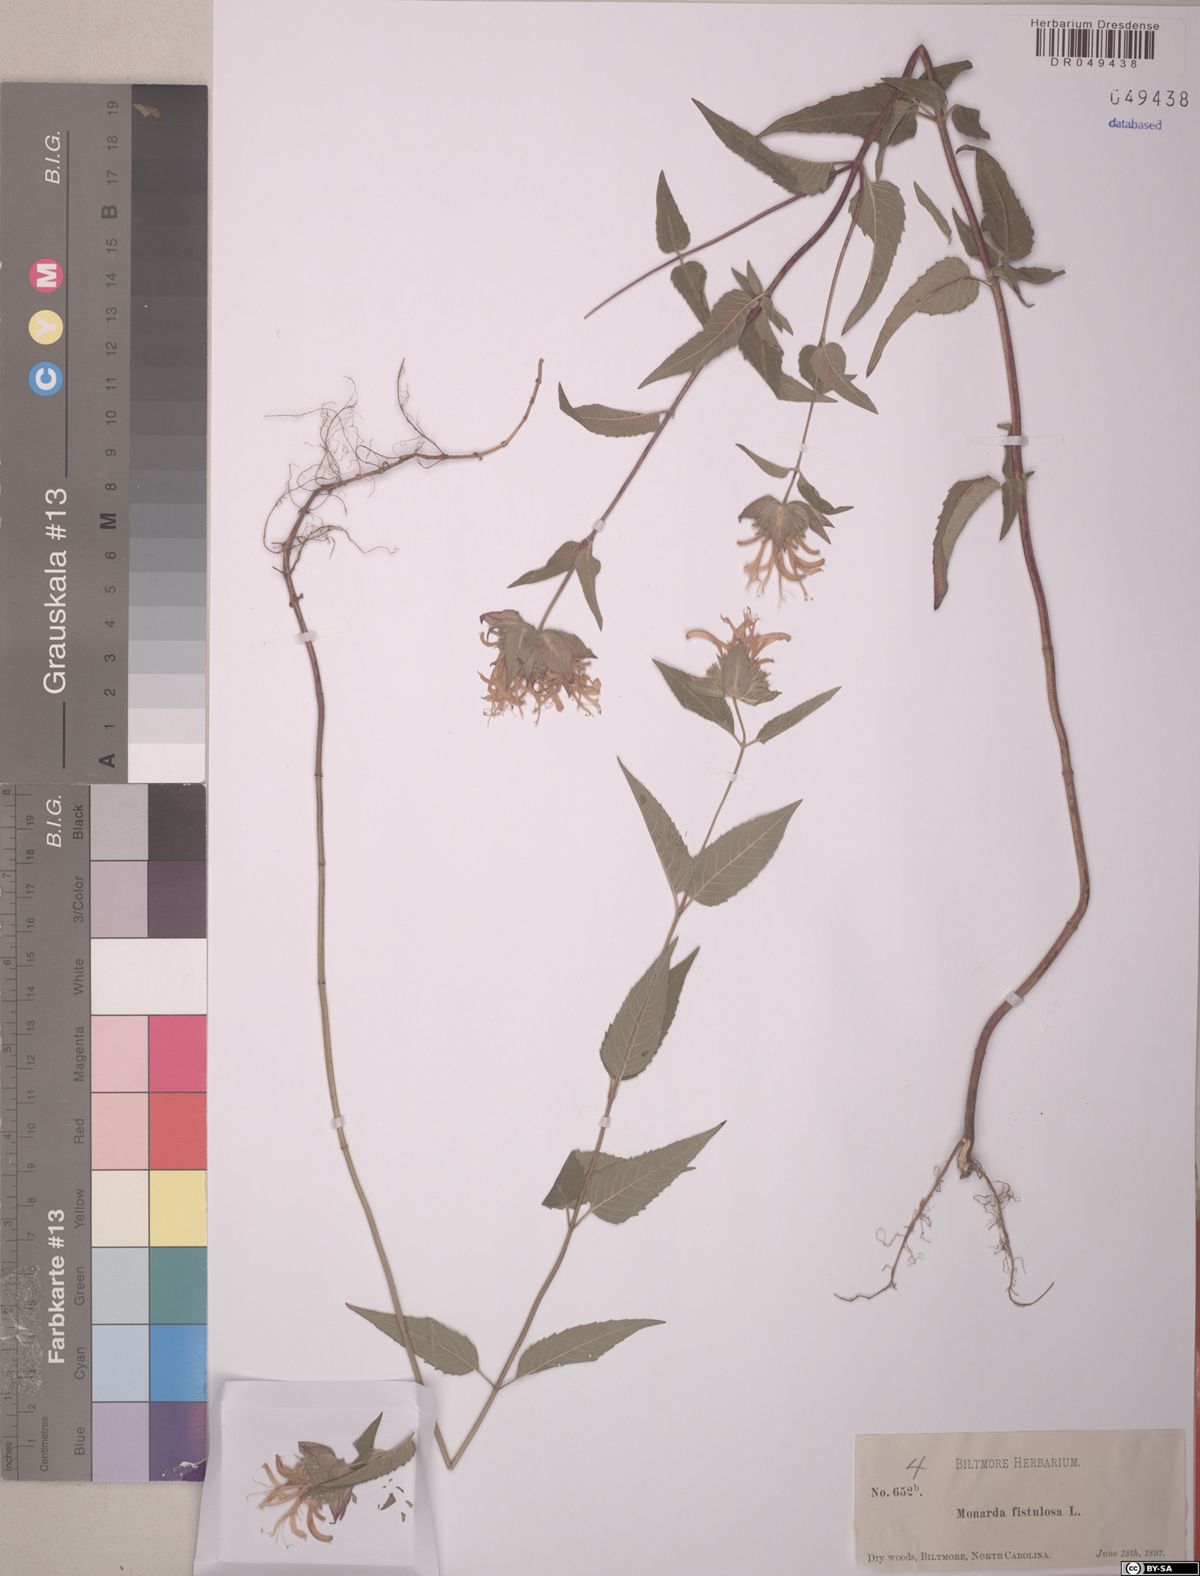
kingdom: Plantae
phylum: Tracheophyta
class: Magnoliopsida
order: Lamiales
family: Lamiaceae
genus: Monarda
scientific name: Monarda fistulosa
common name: Purple beebalm
